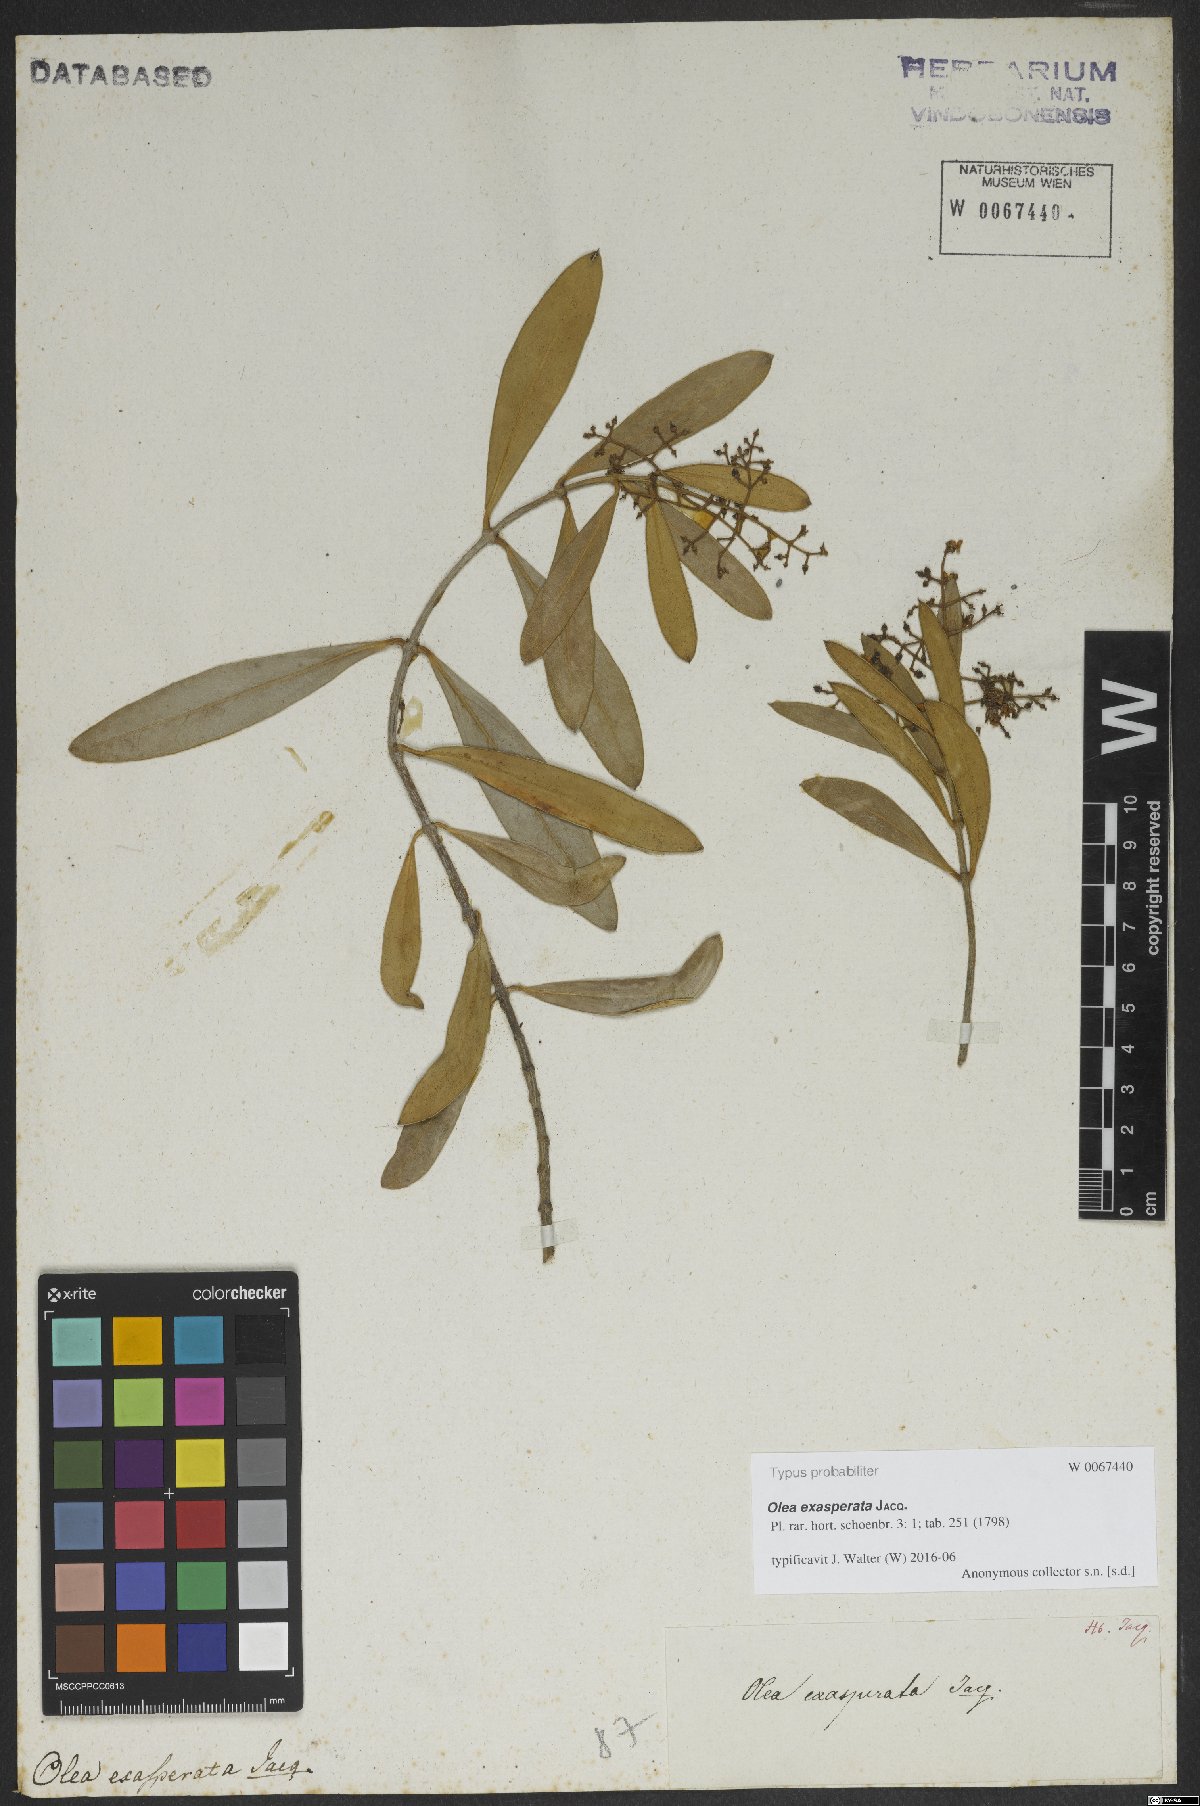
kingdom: Plantae
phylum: Tracheophyta
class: Magnoliopsida
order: Lamiales
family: Oleaceae
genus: Olea
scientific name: Olea exasperata
